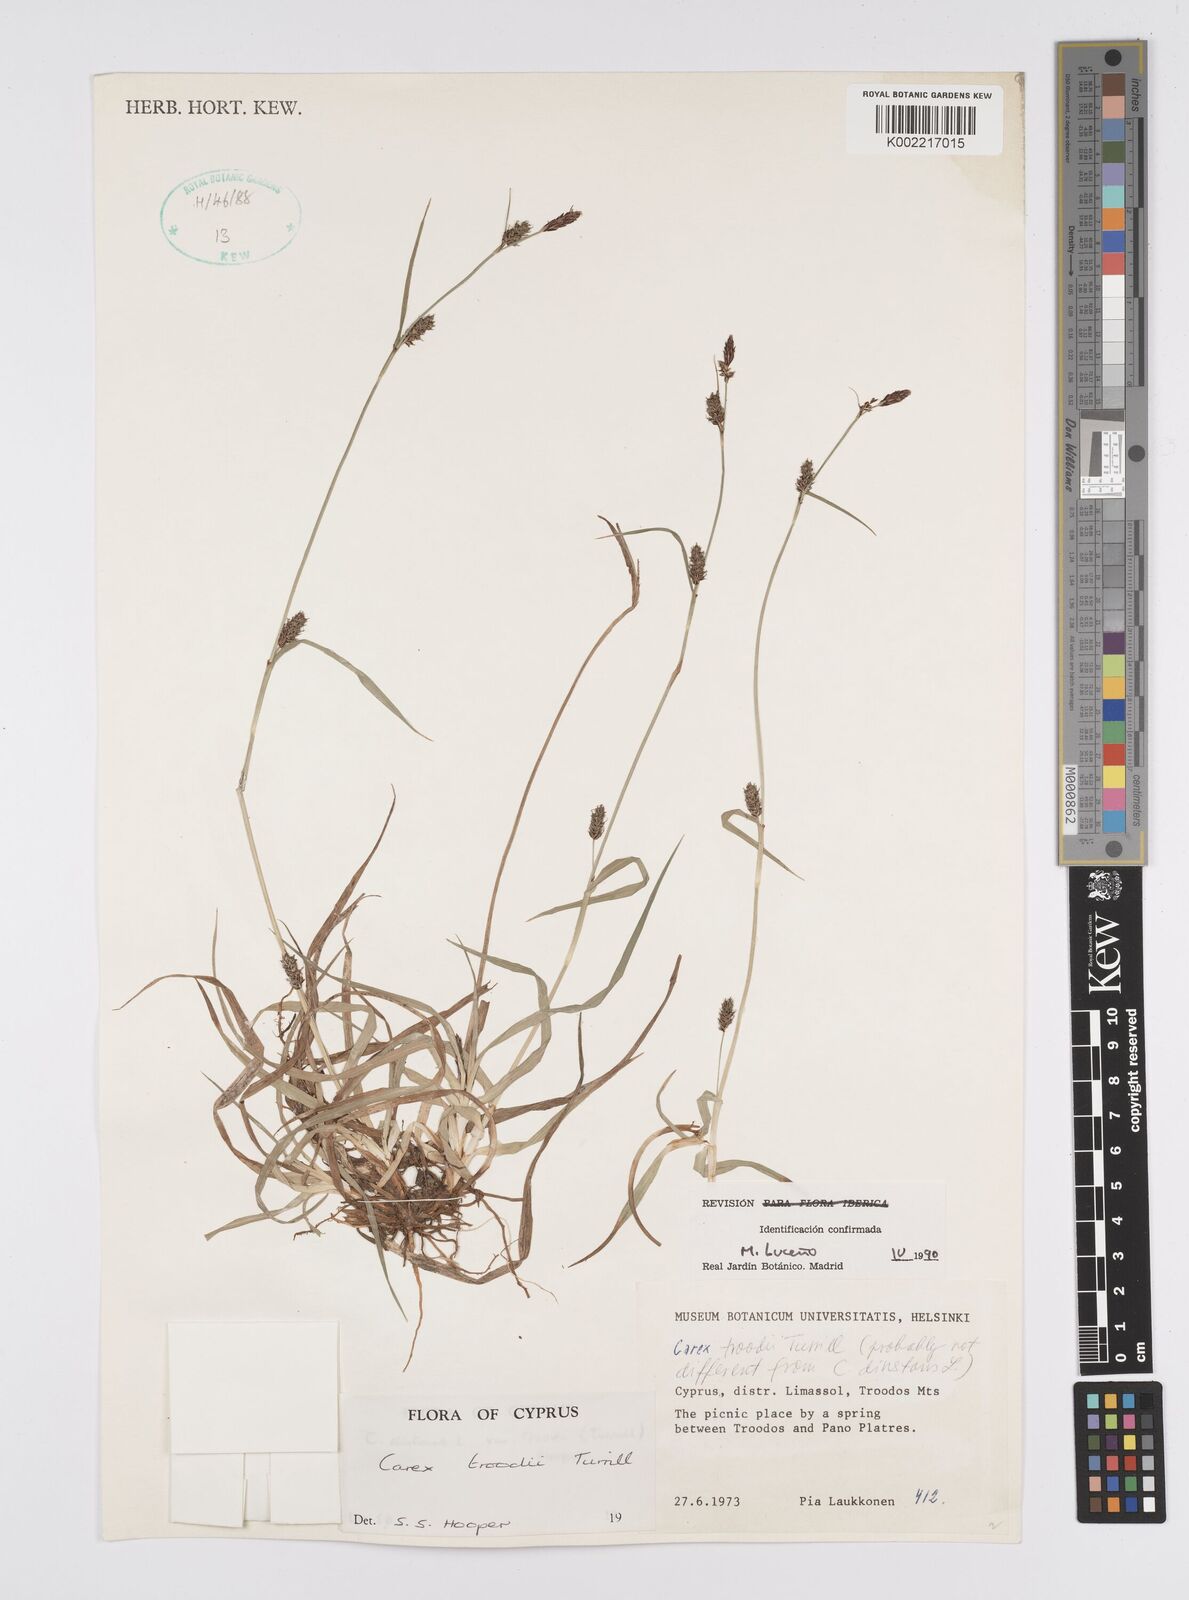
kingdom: Plantae
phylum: Tracheophyta
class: Liliopsida
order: Poales
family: Cyperaceae
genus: Carex
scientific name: Carex troodi
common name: Troodos mount sedge
